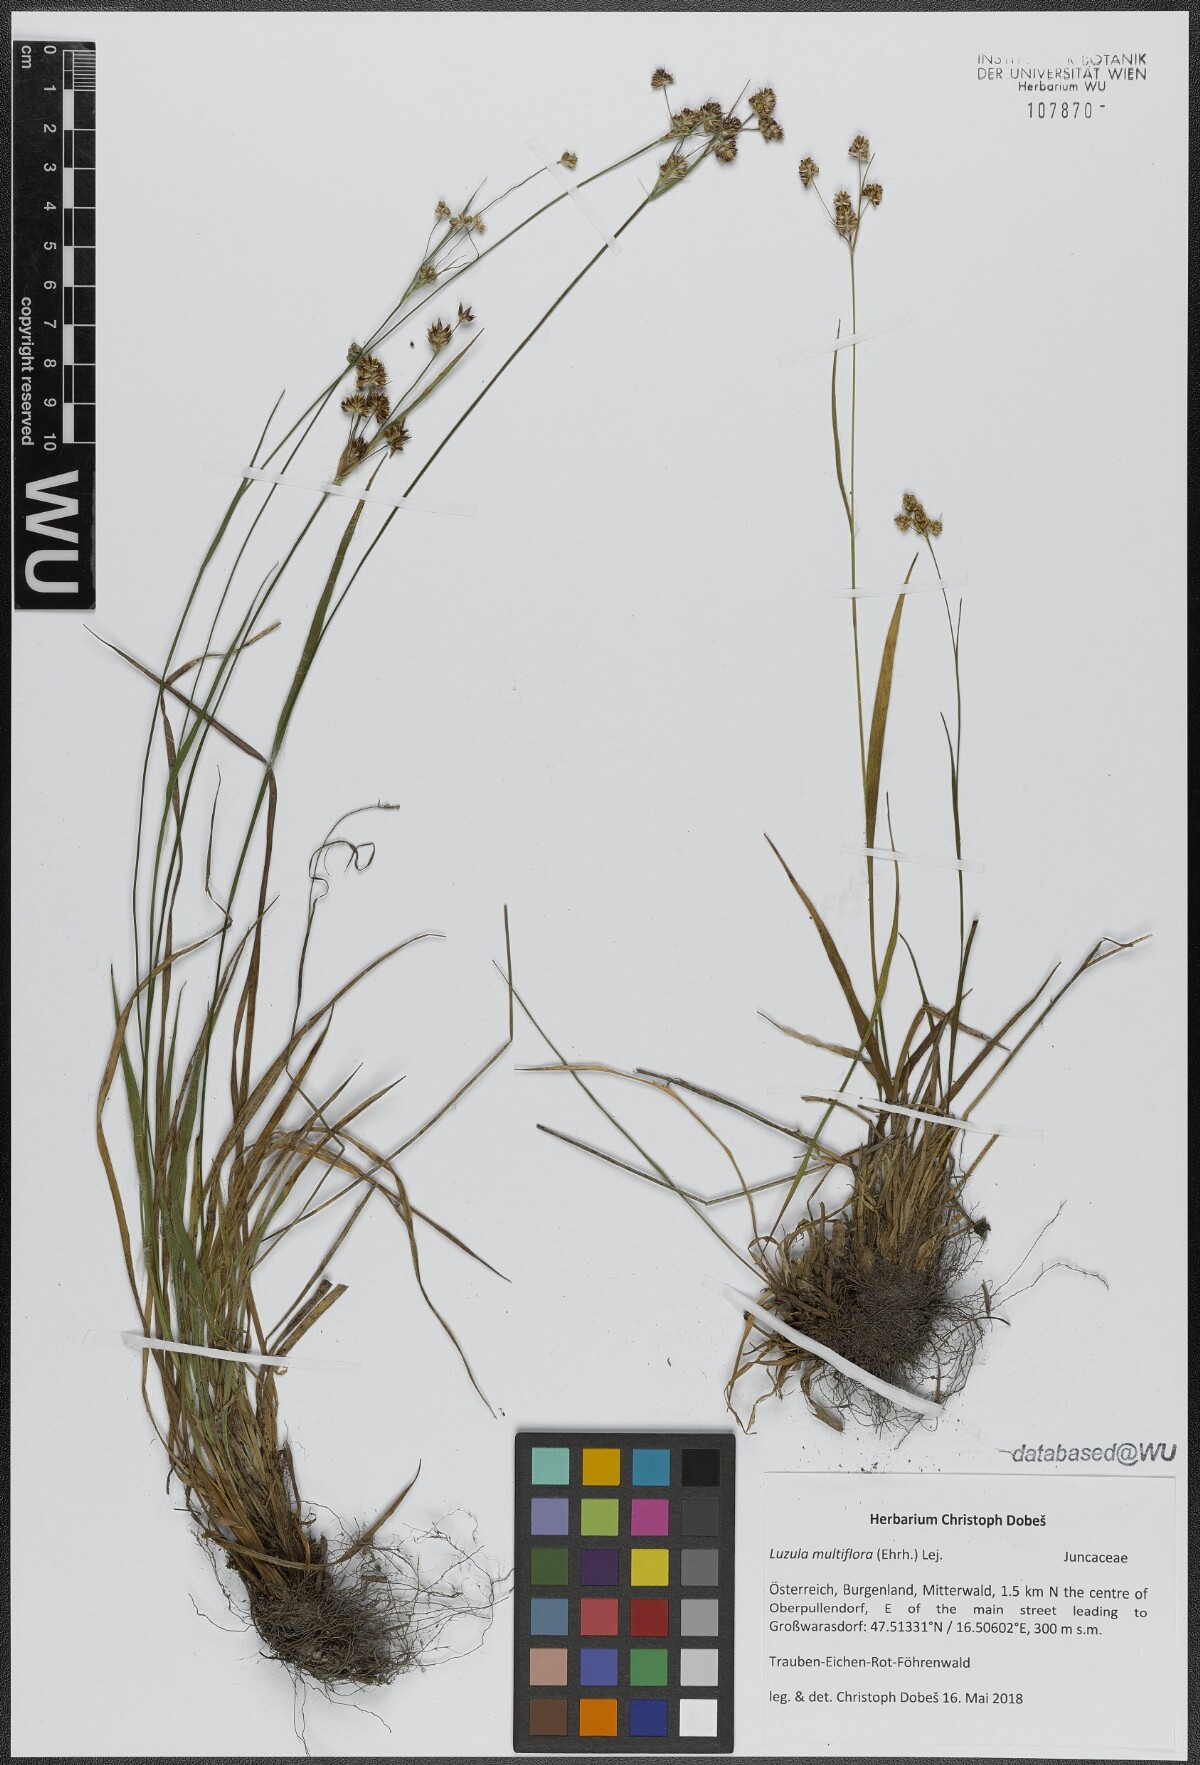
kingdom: Plantae
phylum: Tracheophyta
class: Liliopsida
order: Poales
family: Juncaceae
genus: Luzula
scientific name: Luzula multiflora
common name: Heath wood-rush
